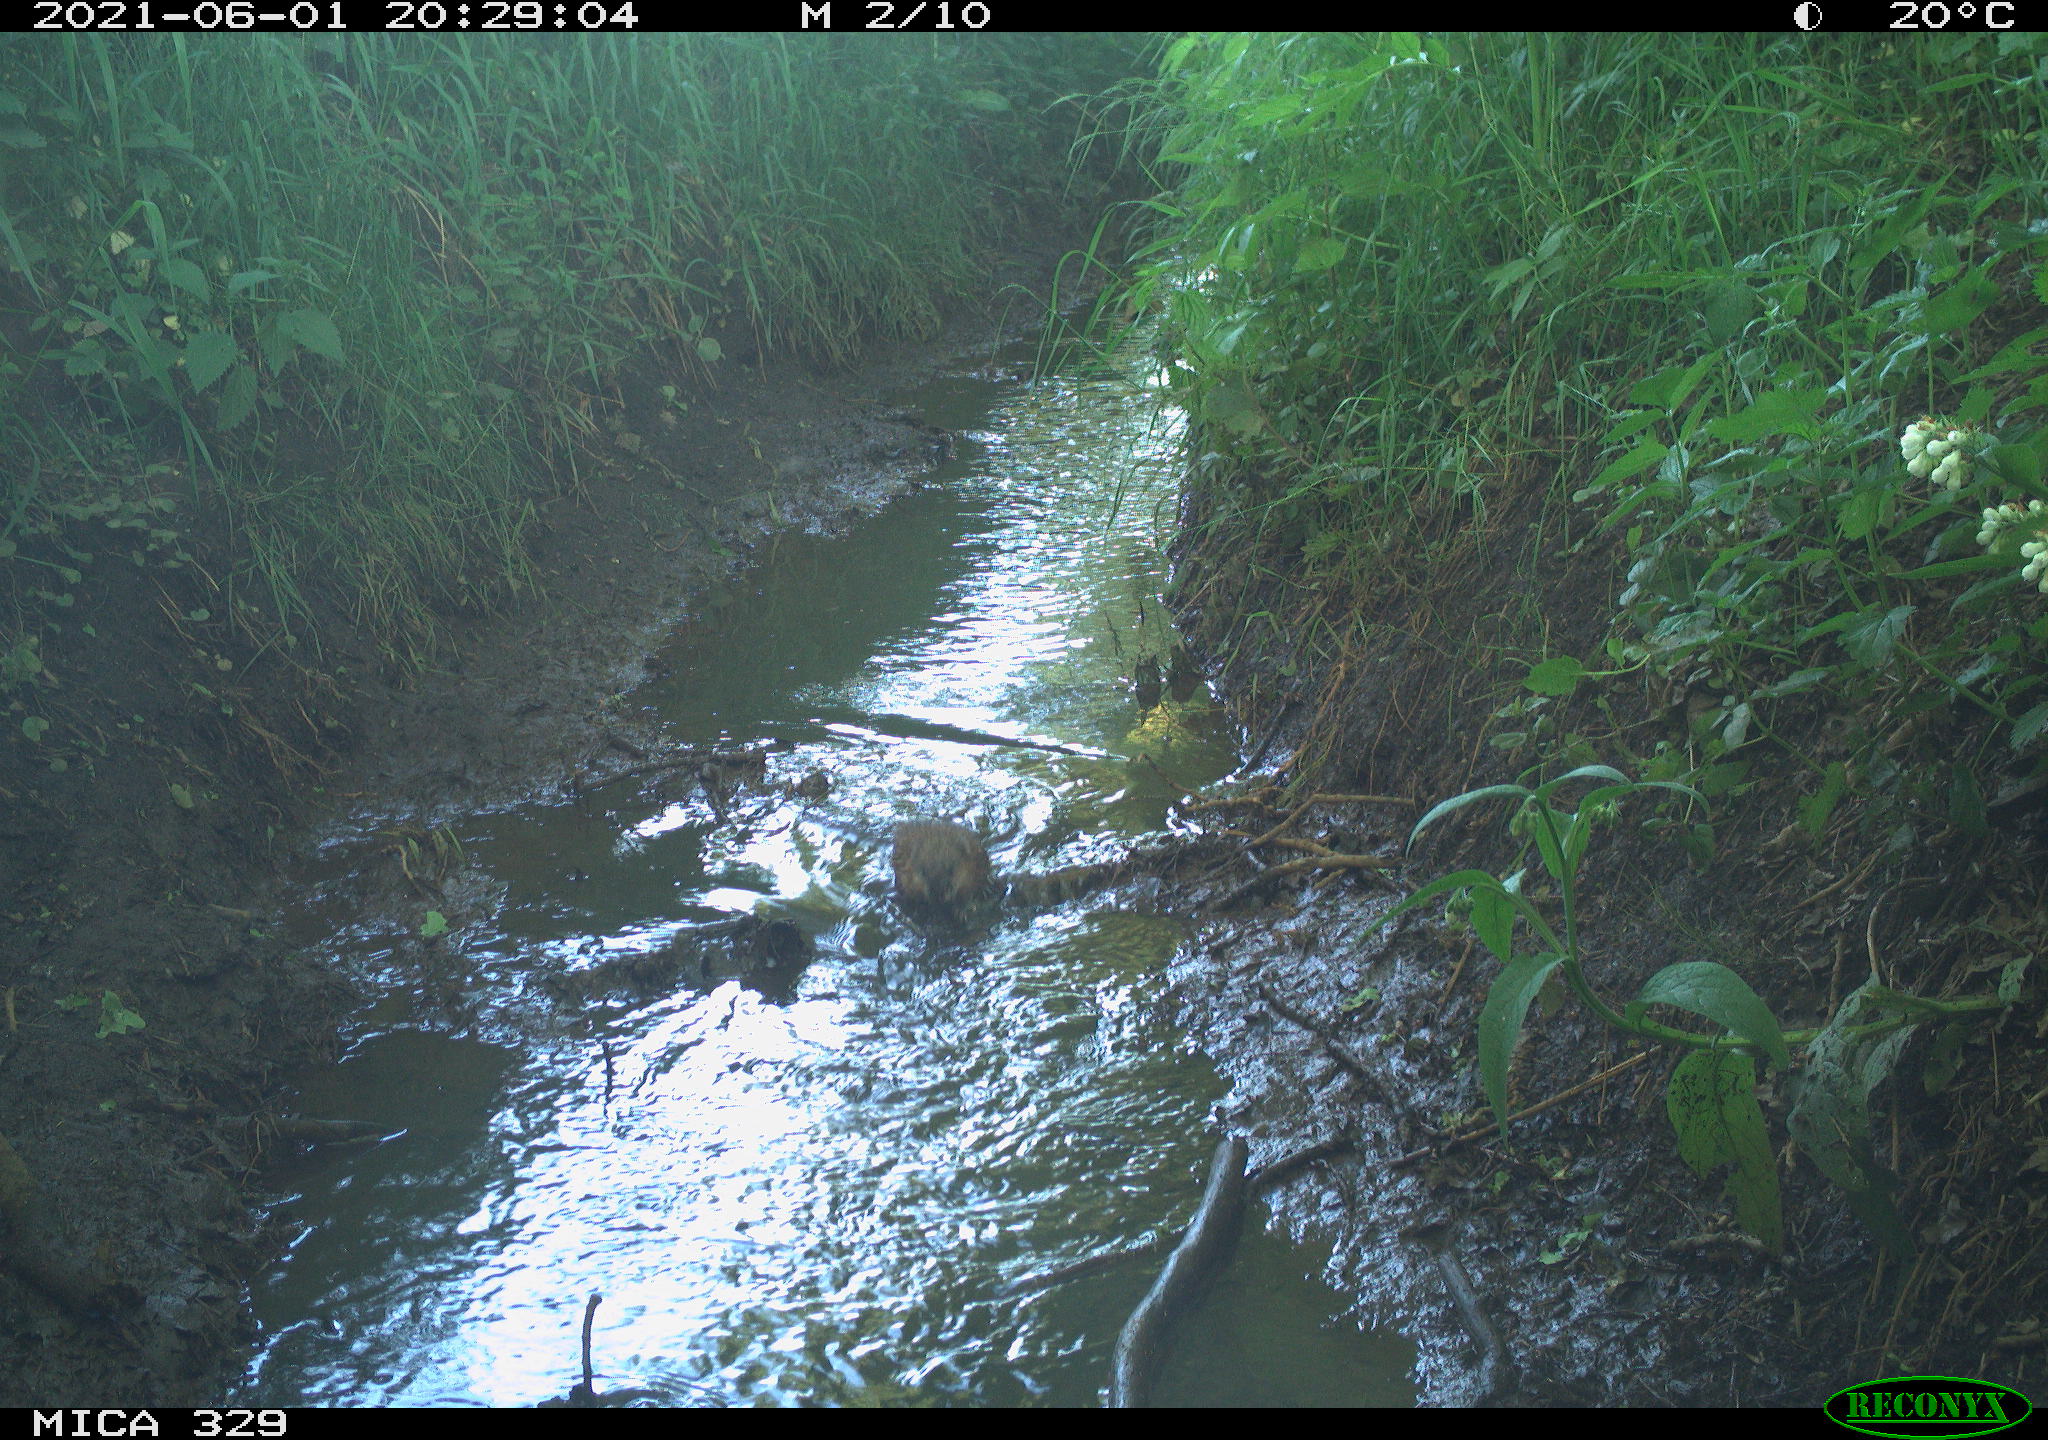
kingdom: Animalia
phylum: Chordata
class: Mammalia
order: Rodentia
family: Cricetidae
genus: Ondatra
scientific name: Ondatra zibethicus
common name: Muskrat
